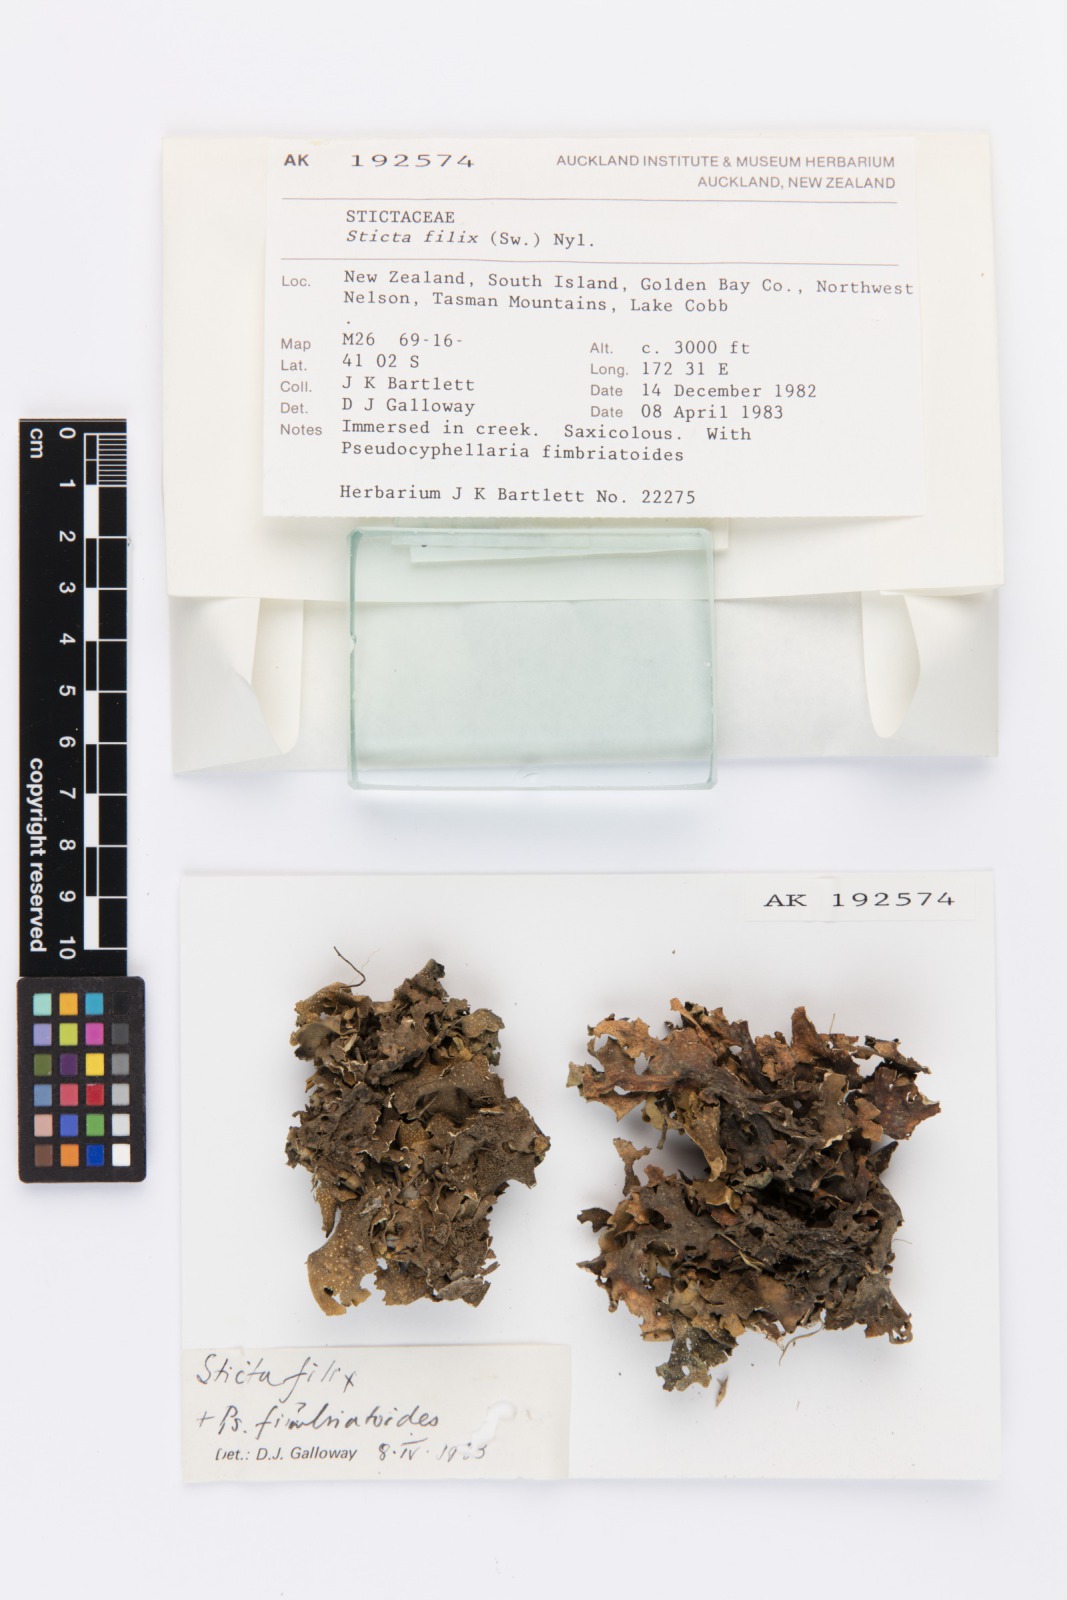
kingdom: Fungi
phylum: Ascomycota
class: Lecanoromycetes
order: Peltigerales
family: Lobariaceae
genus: Sticta
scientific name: Sticta filix
